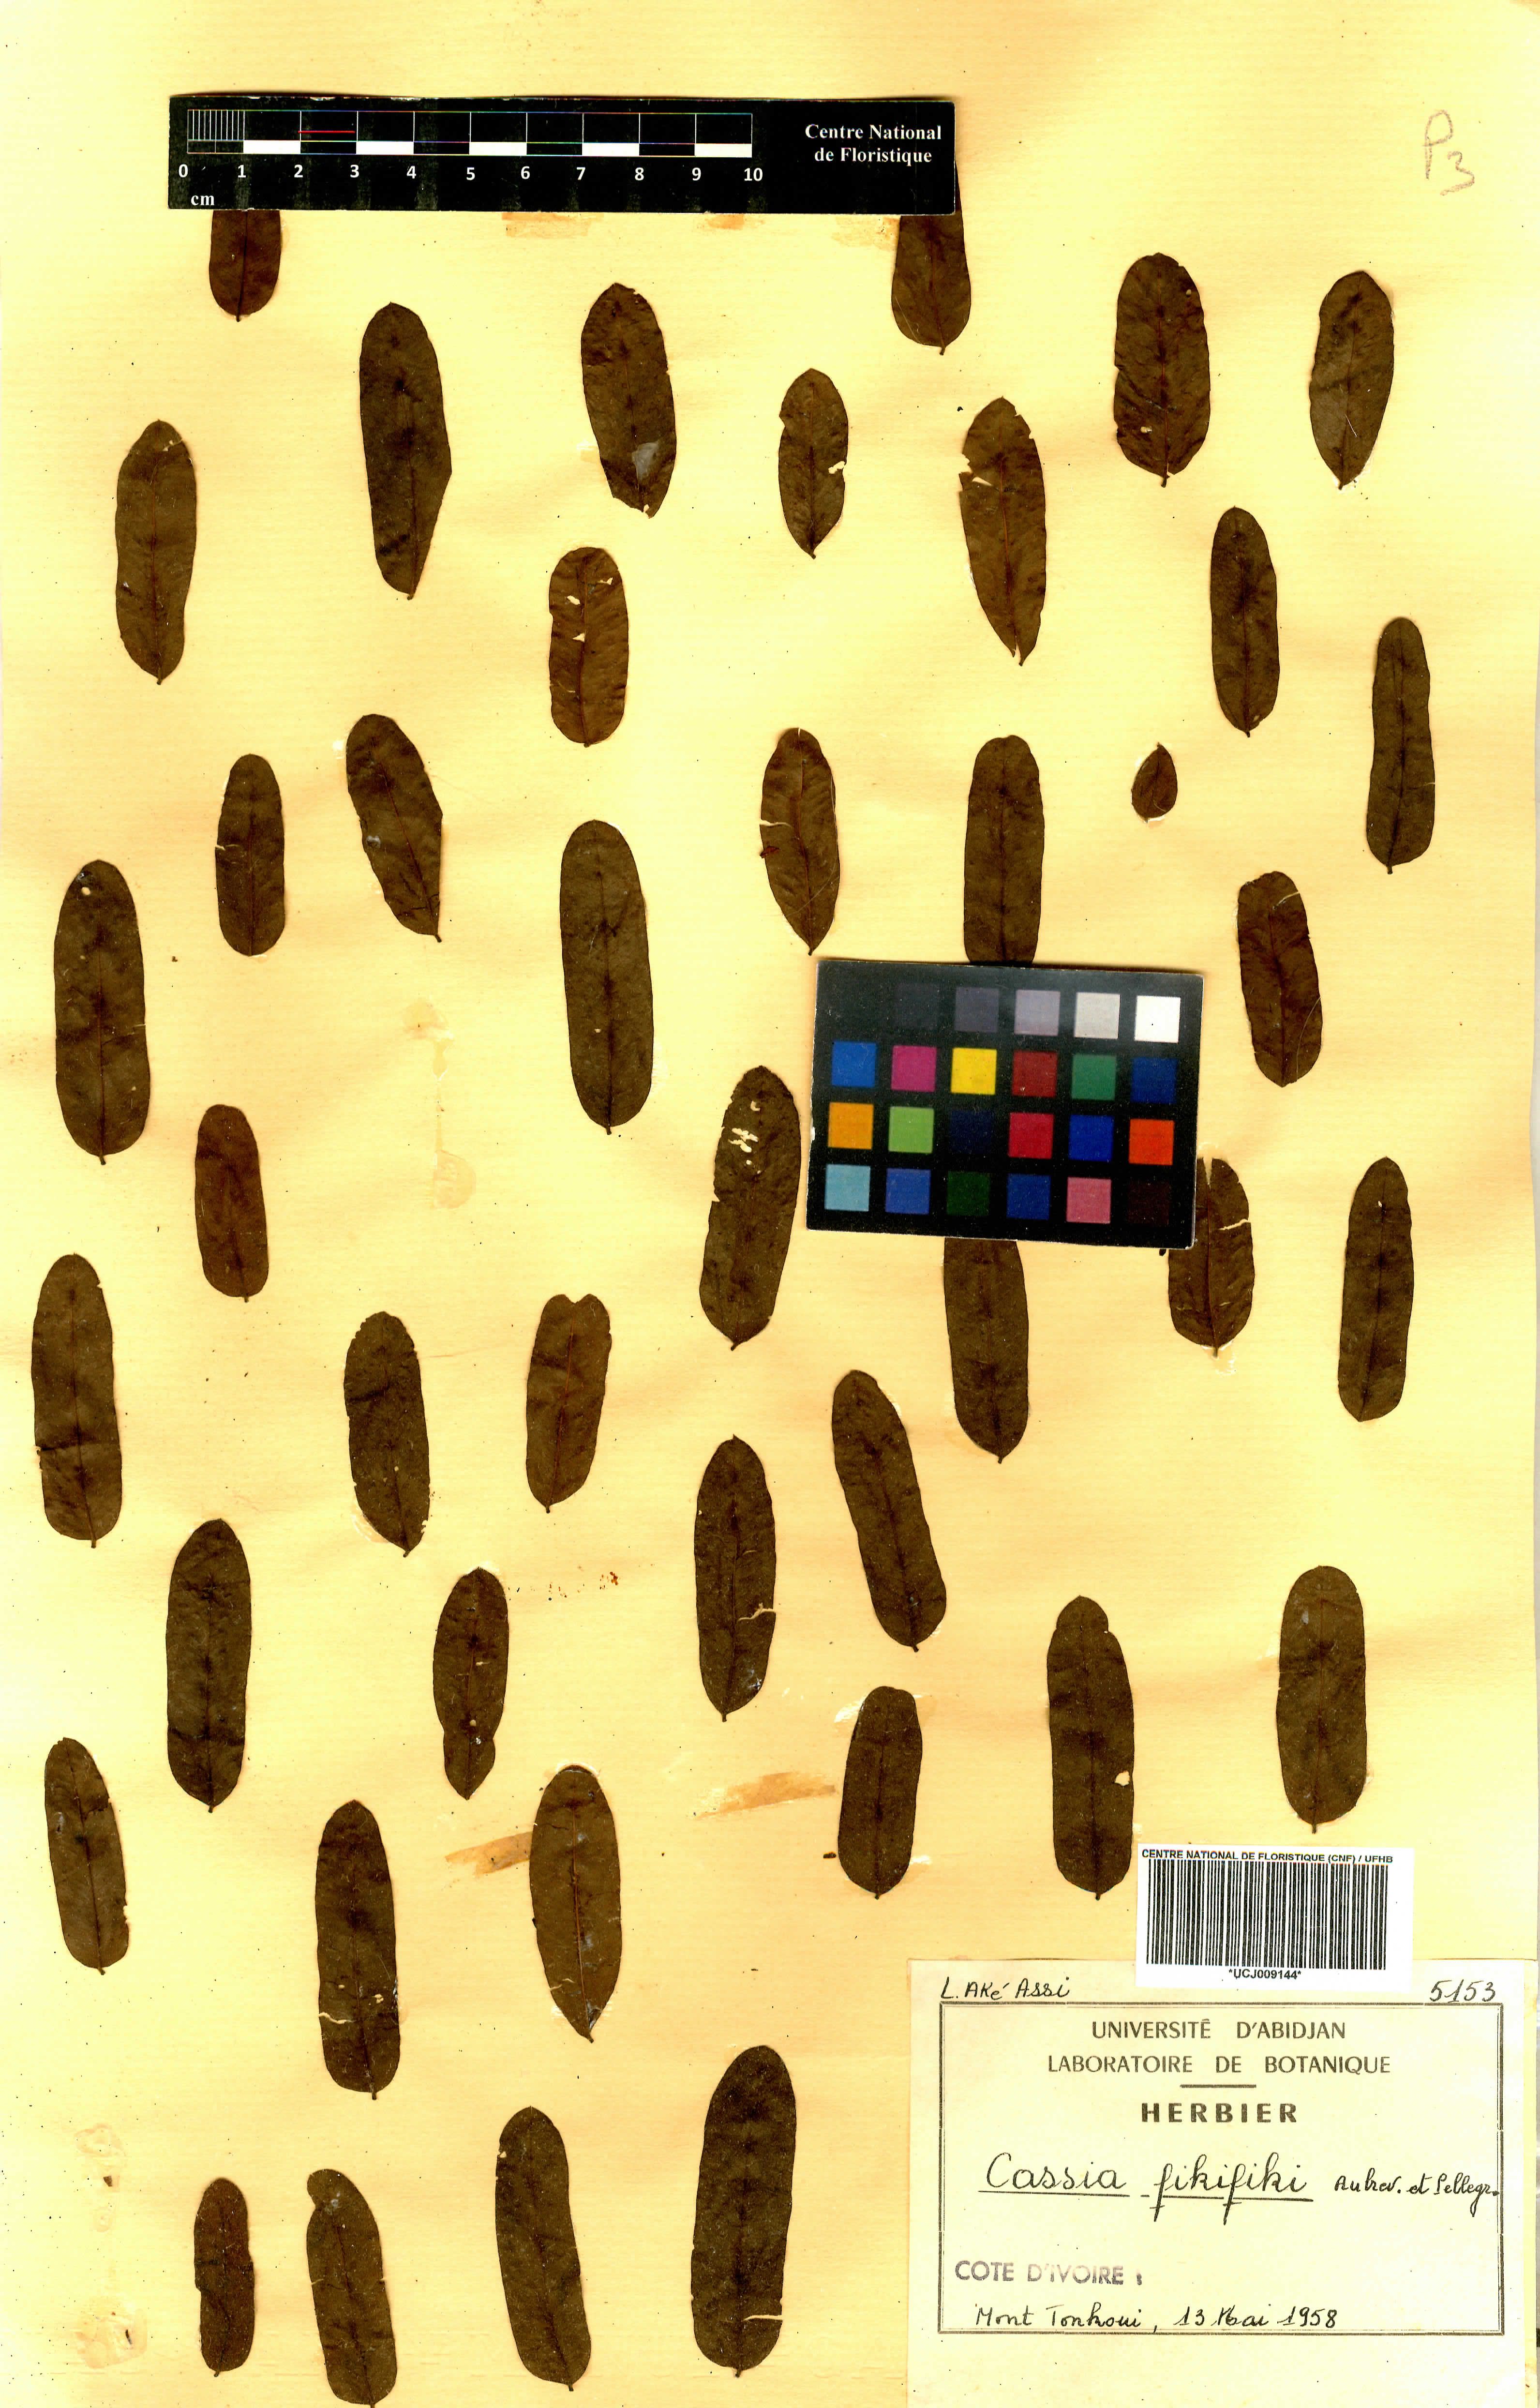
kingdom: Plantae
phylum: Tracheophyta
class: Magnoliopsida
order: Fabales
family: Fabaceae
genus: Cassia
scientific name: Cassia fikifiki
